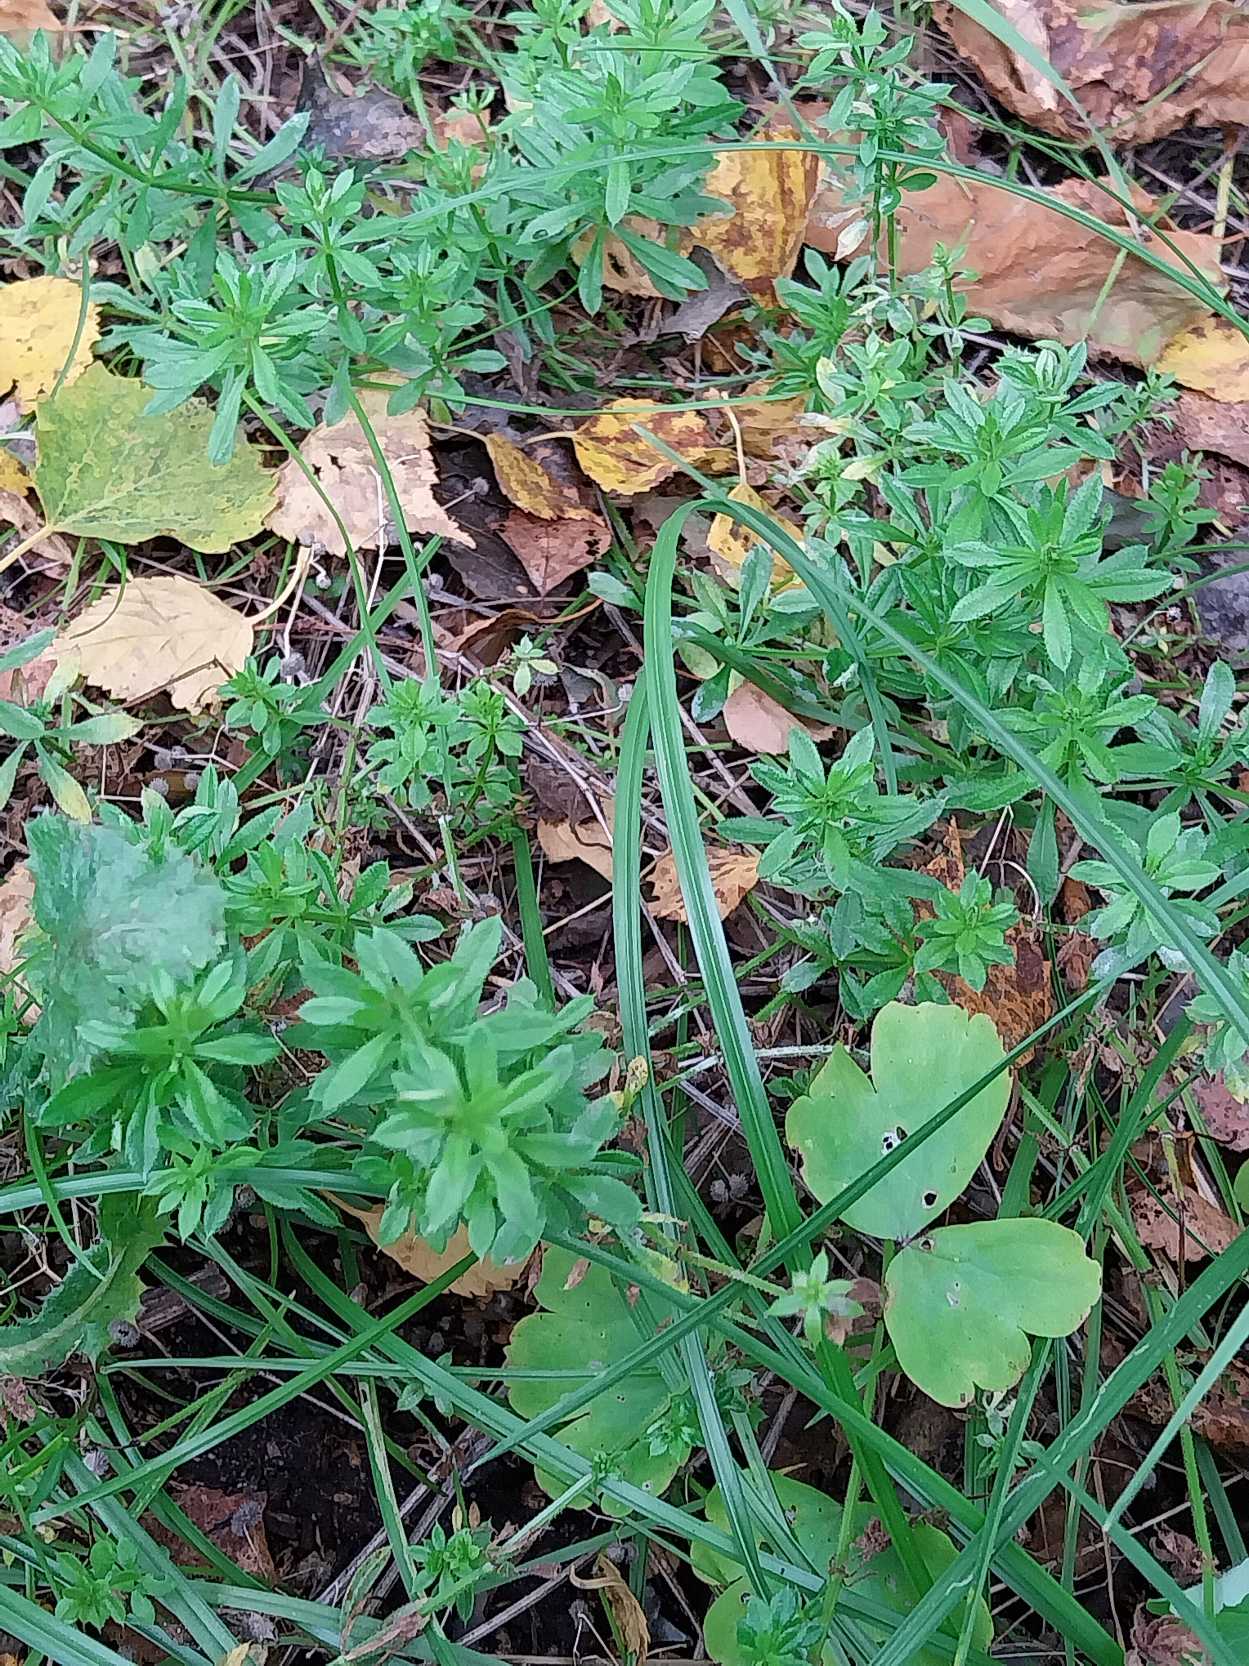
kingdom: Plantae
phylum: Tracheophyta
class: Magnoliopsida
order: Gentianales
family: Rubiaceae
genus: Galium
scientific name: Galium aparine
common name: Burre-snerre
